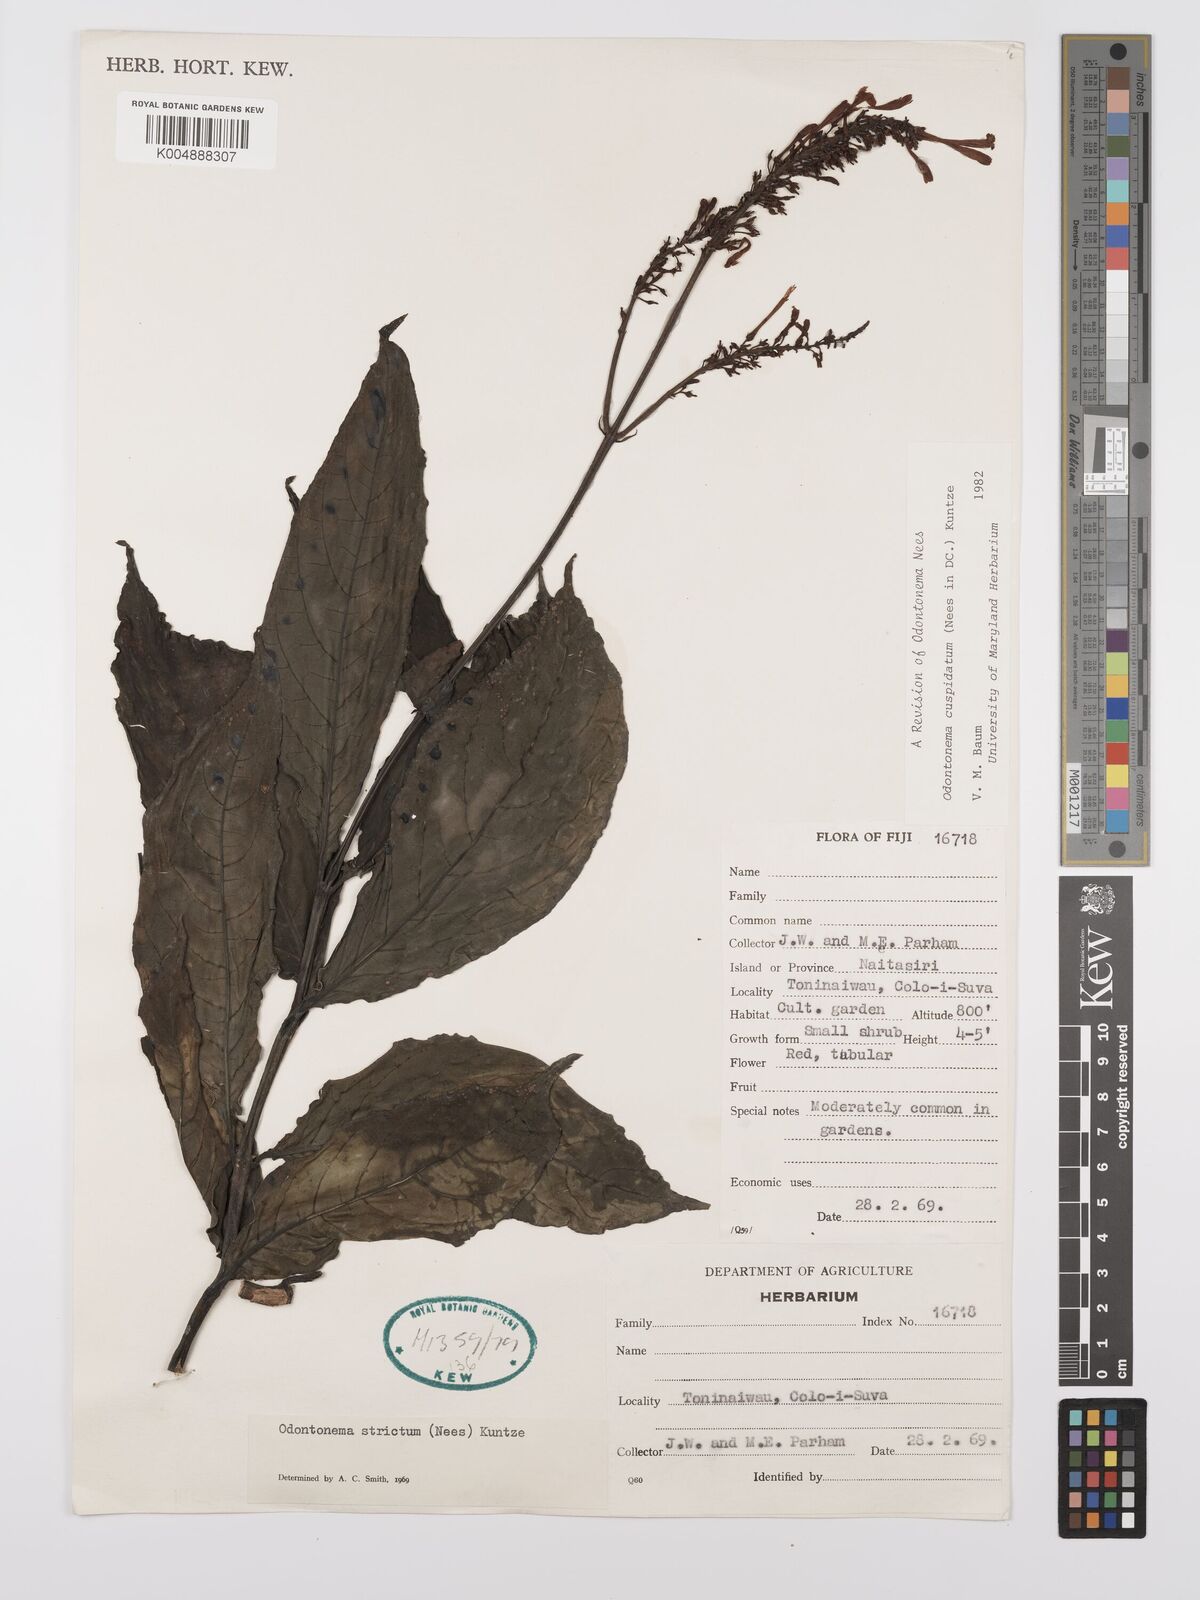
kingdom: Plantae
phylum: Tracheophyta
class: Magnoliopsida
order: Lamiales
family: Acanthaceae
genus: Odontonema
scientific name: Odontonema cuspidatum
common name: Mottled toothedthread
